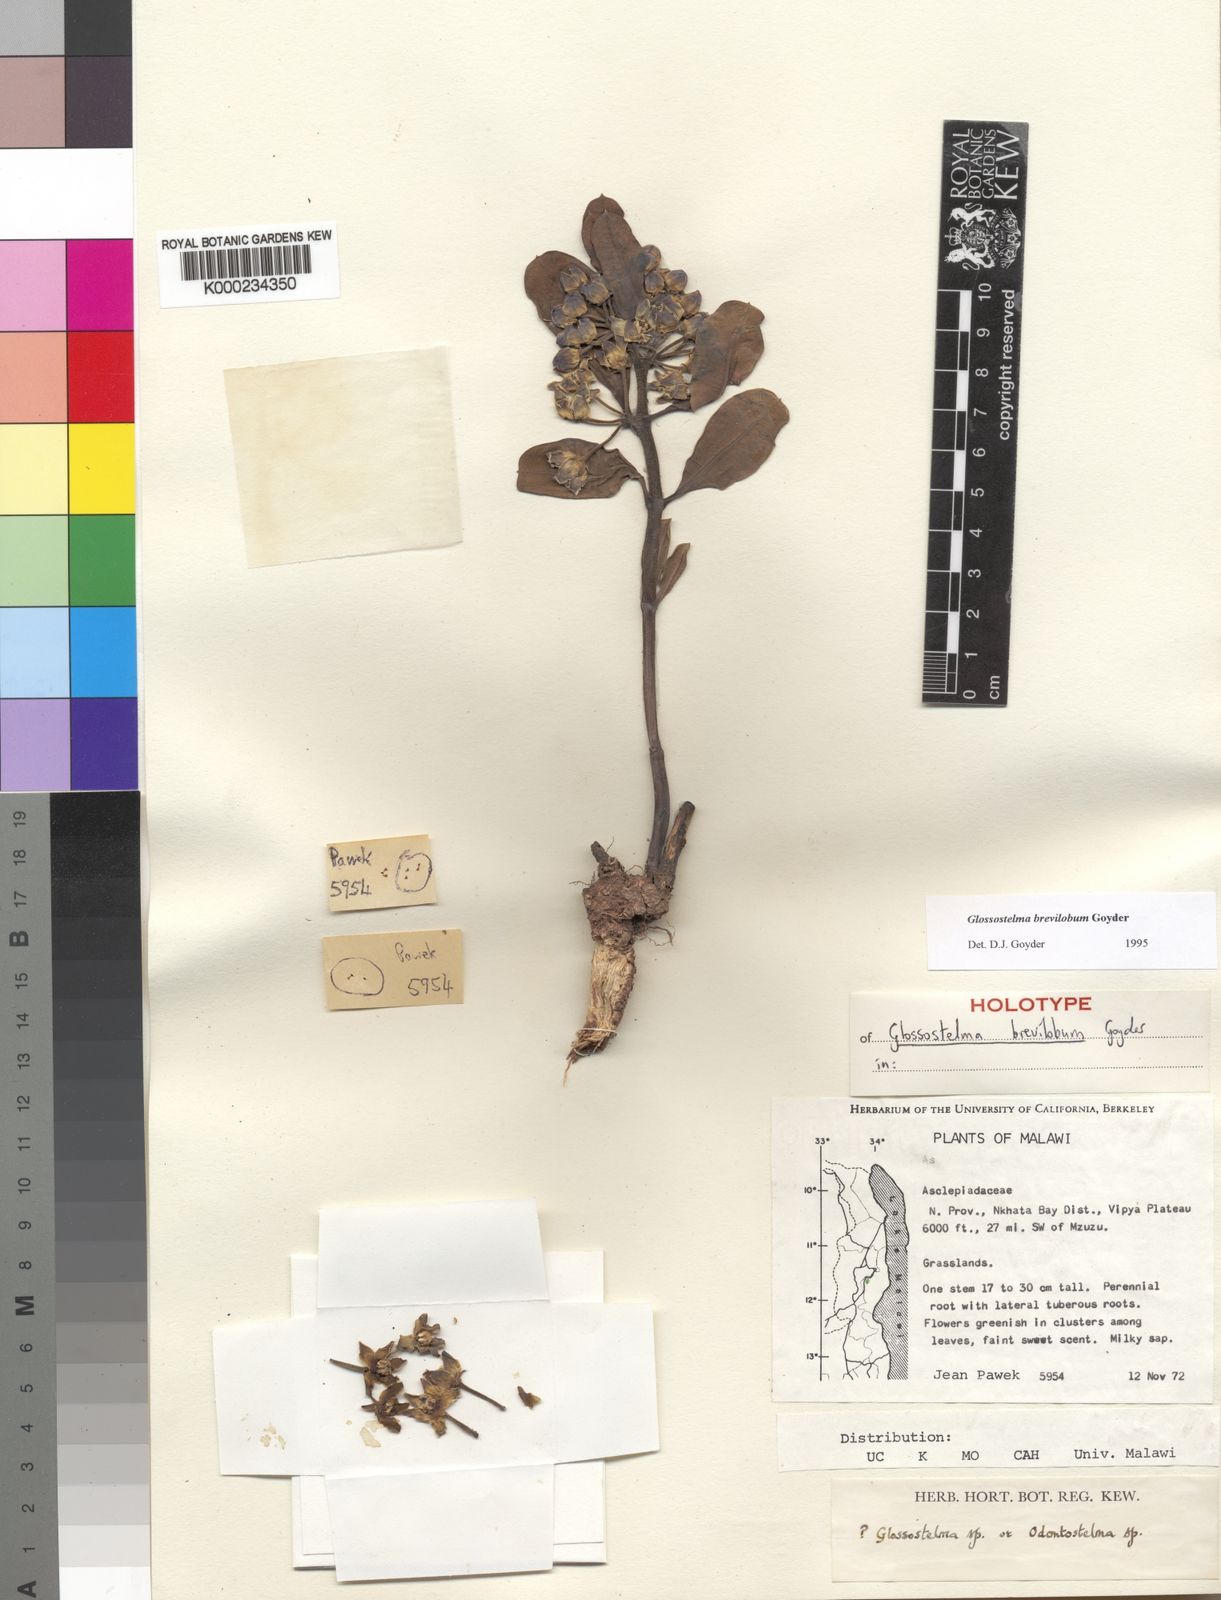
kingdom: Plantae
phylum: Tracheophyta
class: Magnoliopsida
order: Gentianales
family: Apocynaceae
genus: Glossostelma
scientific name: Glossostelma brevilobum
